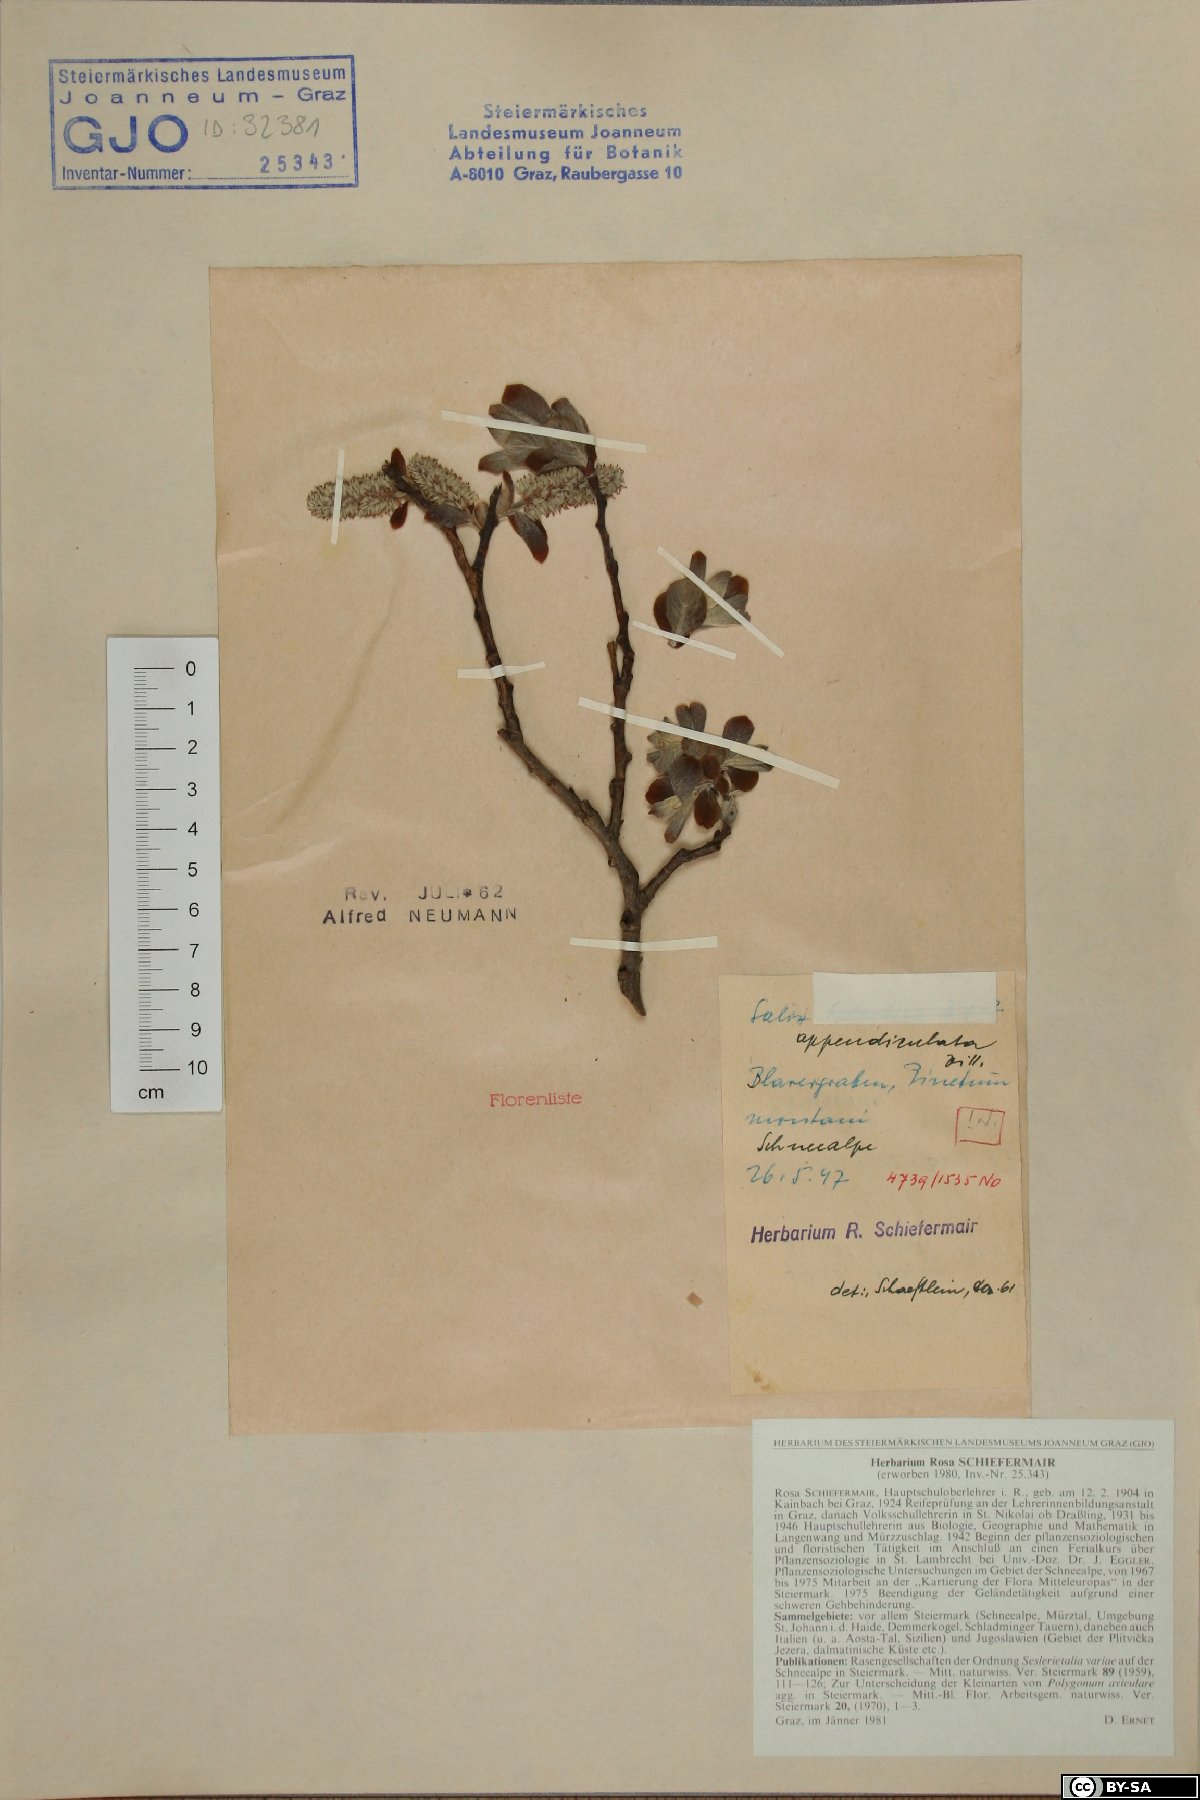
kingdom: Plantae
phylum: Tracheophyta
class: Magnoliopsida
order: Malpighiales
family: Salicaceae
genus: Salix
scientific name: Salix appendiculata
